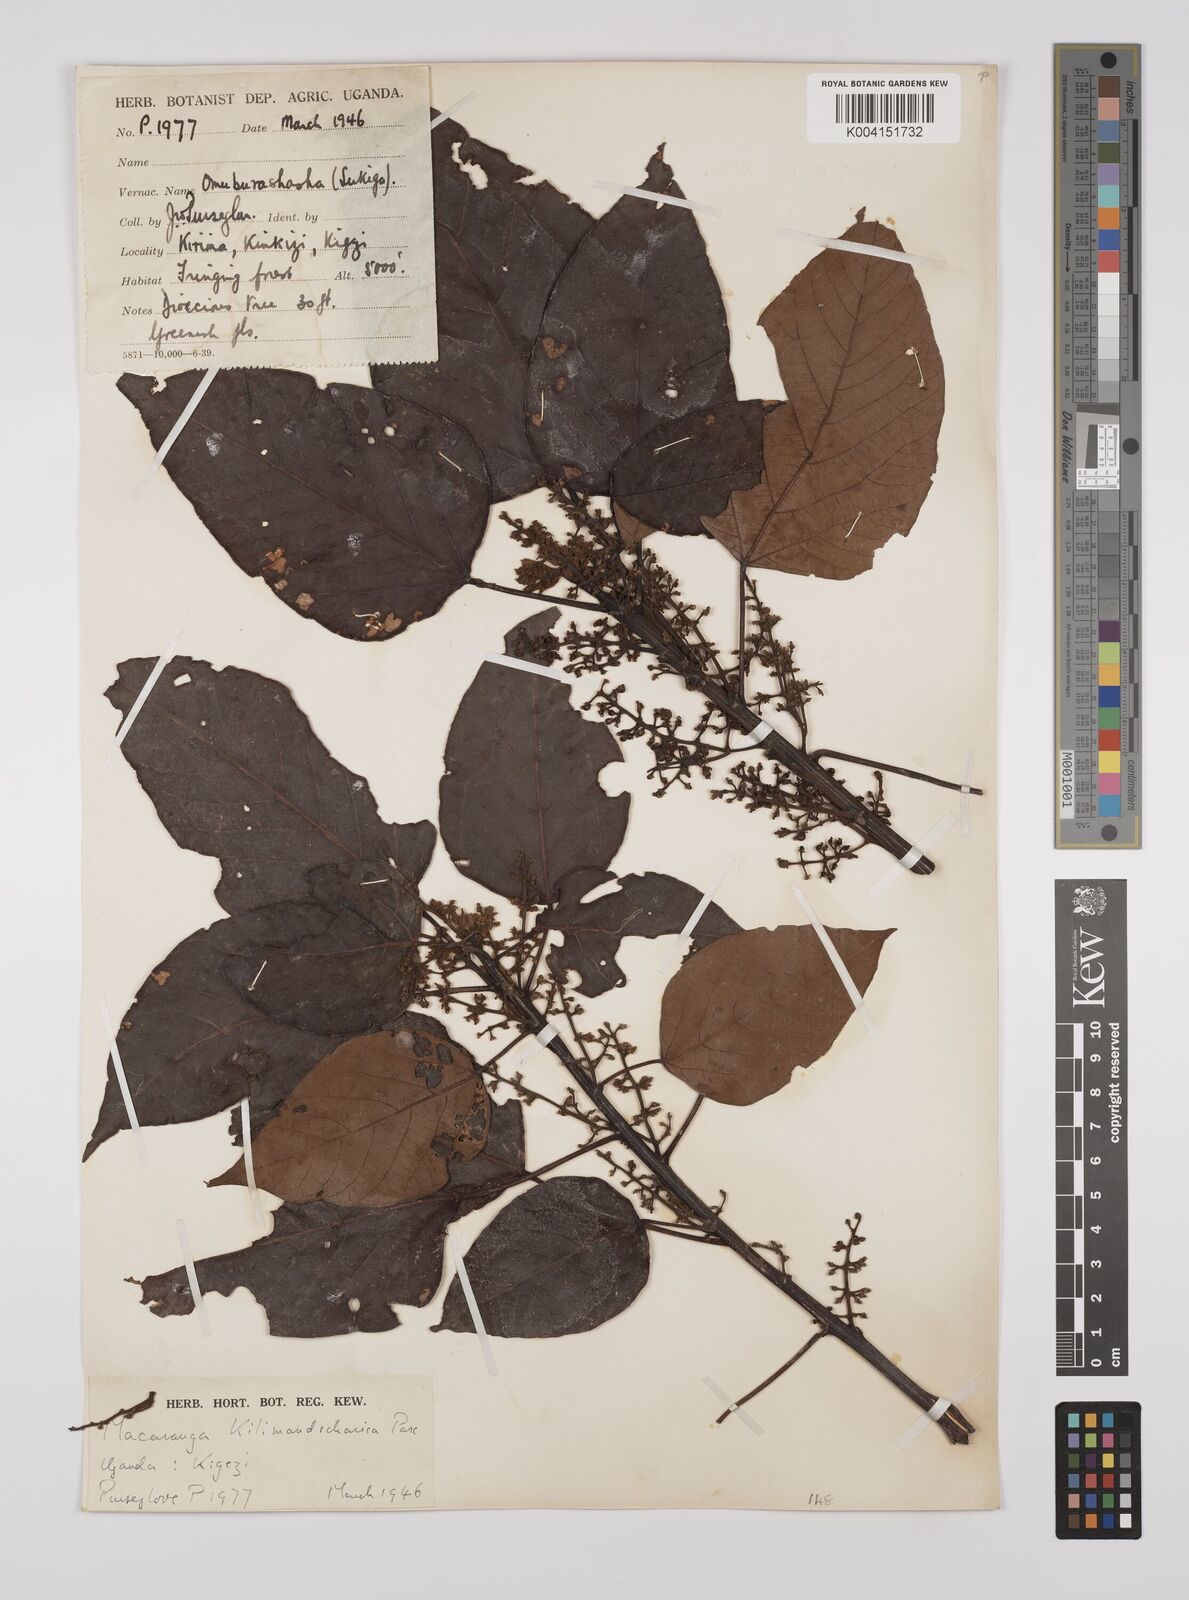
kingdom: Plantae
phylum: Tracheophyta
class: Magnoliopsida
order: Malpighiales
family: Euphorbiaceae
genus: Macaranga
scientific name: Macaranga
